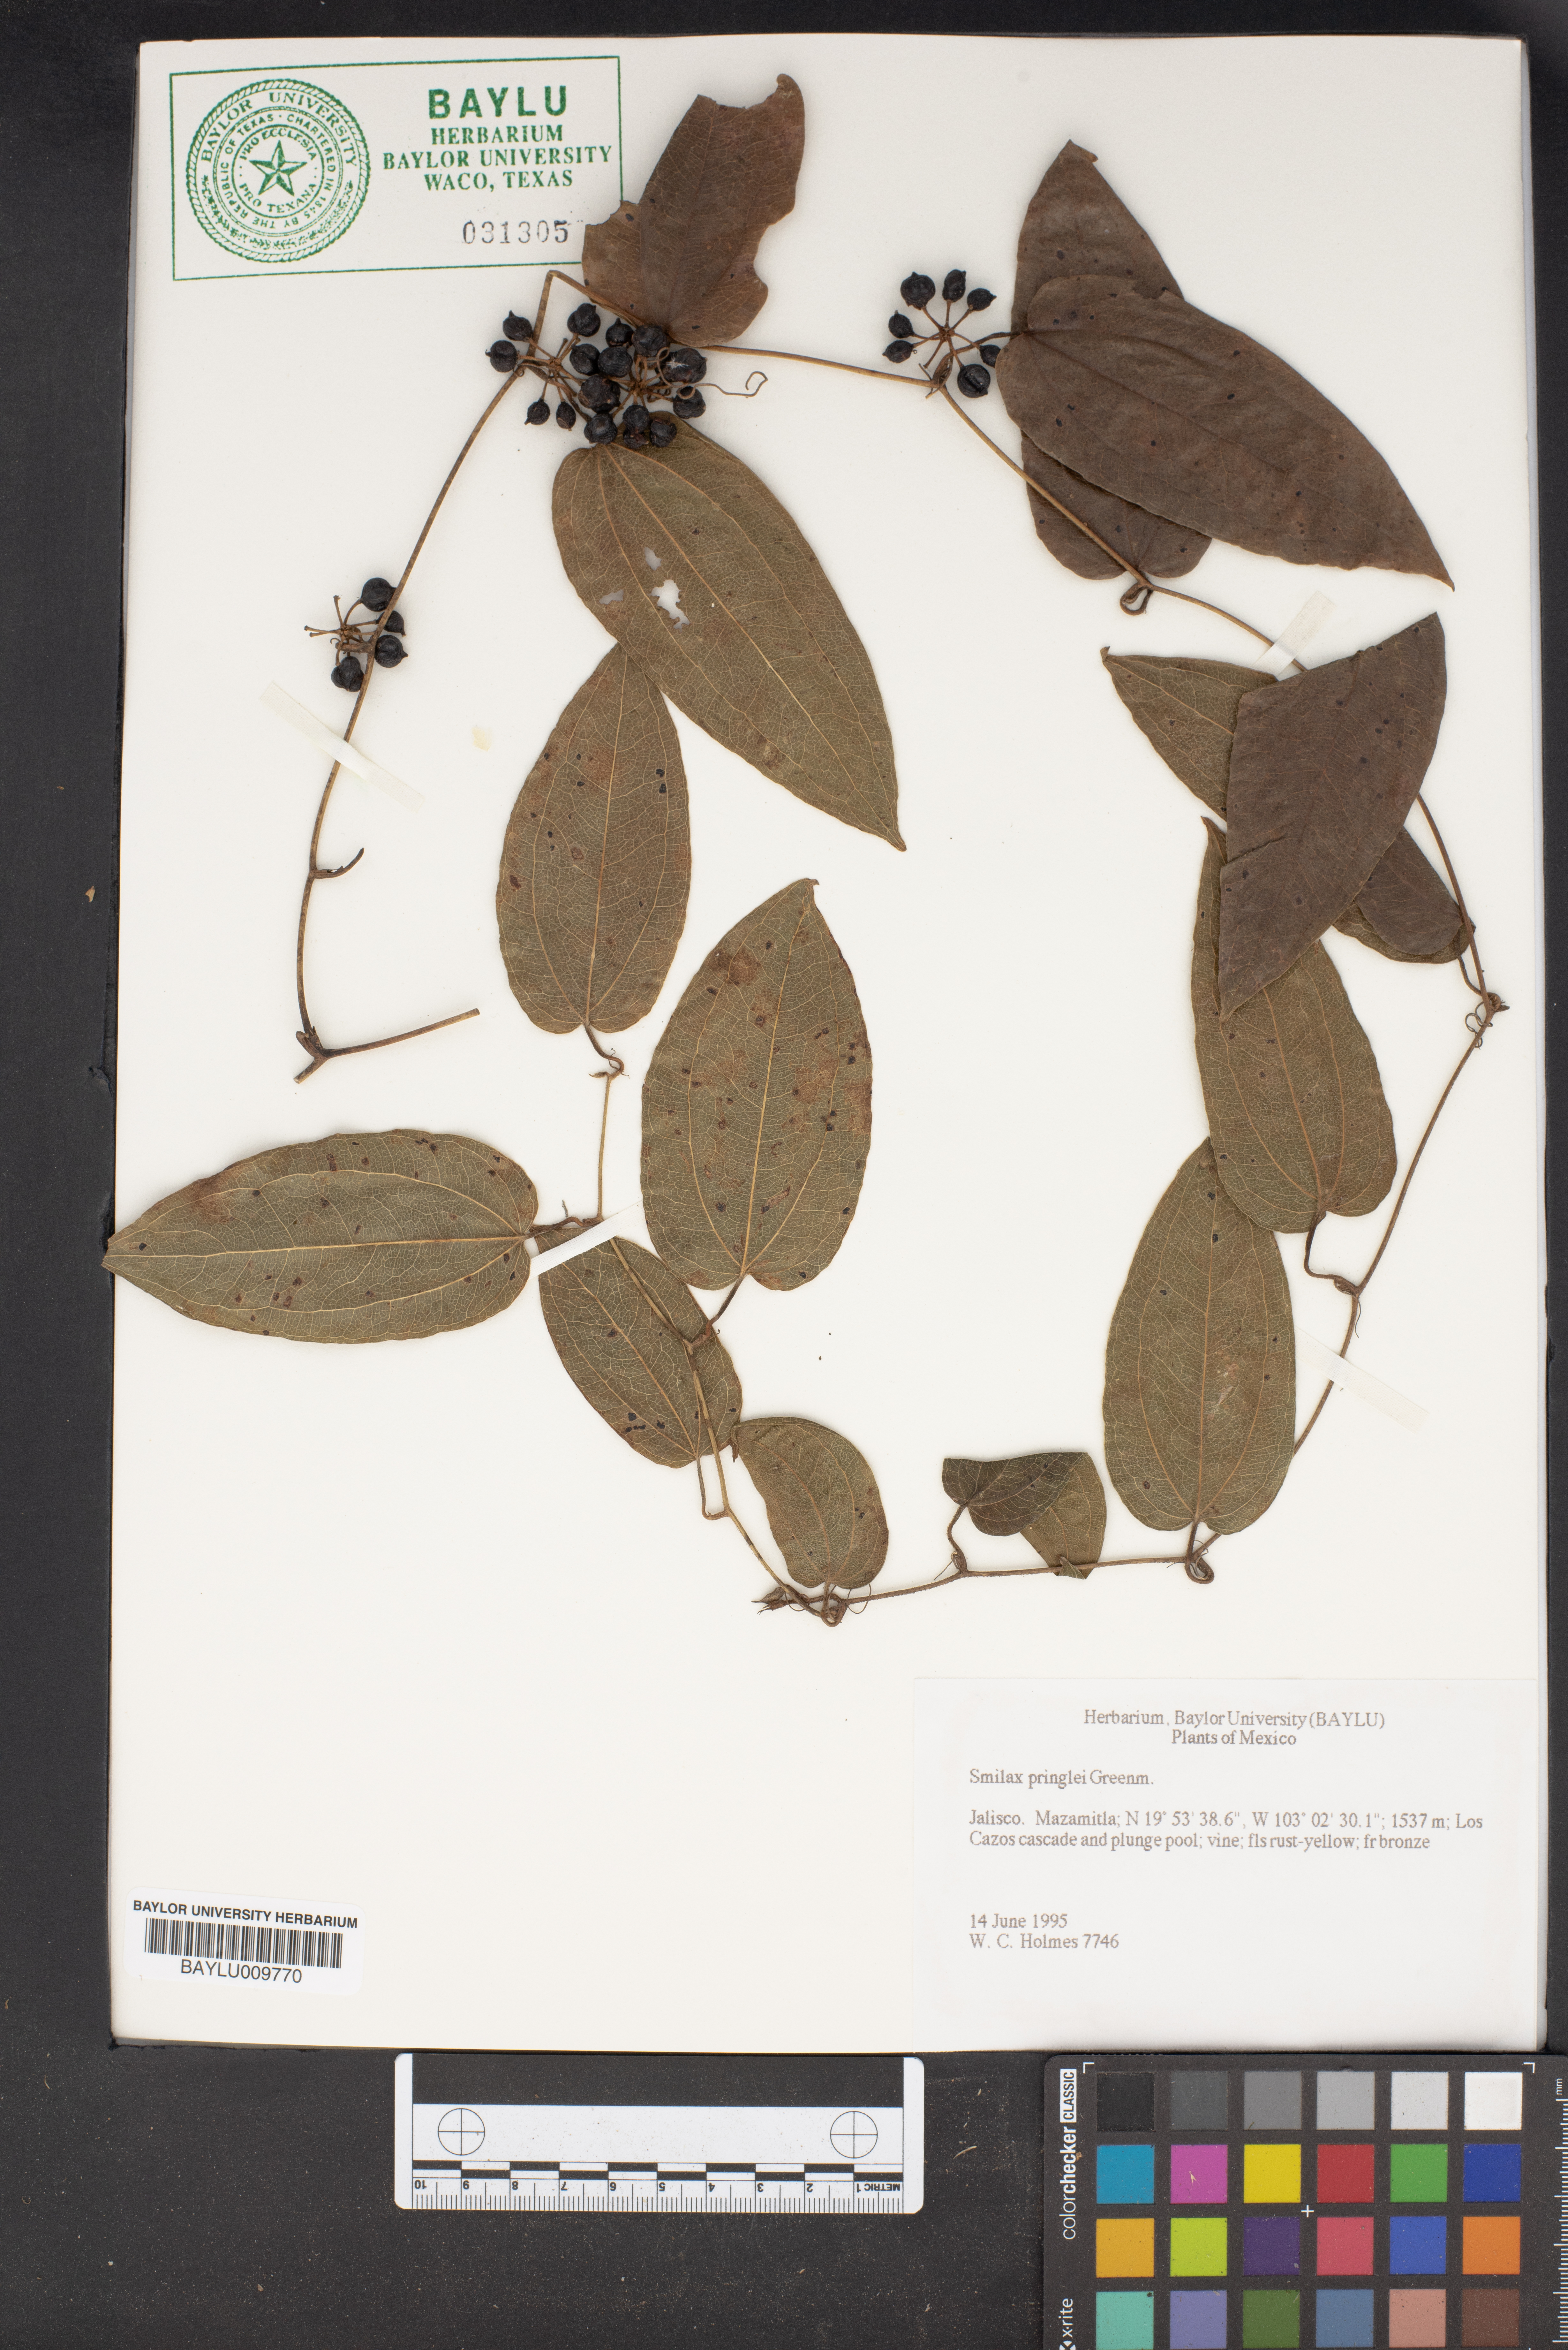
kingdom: Plantae
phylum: Tracheophyta
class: Liliopsida
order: Liliales
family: Smilacaceae
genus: Smilax
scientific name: Smilax mollis
